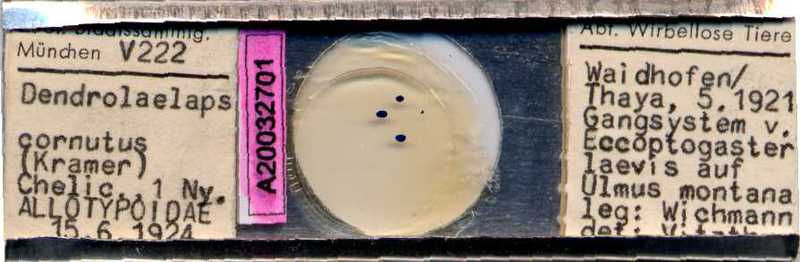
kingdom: Animalia
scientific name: Animalia
